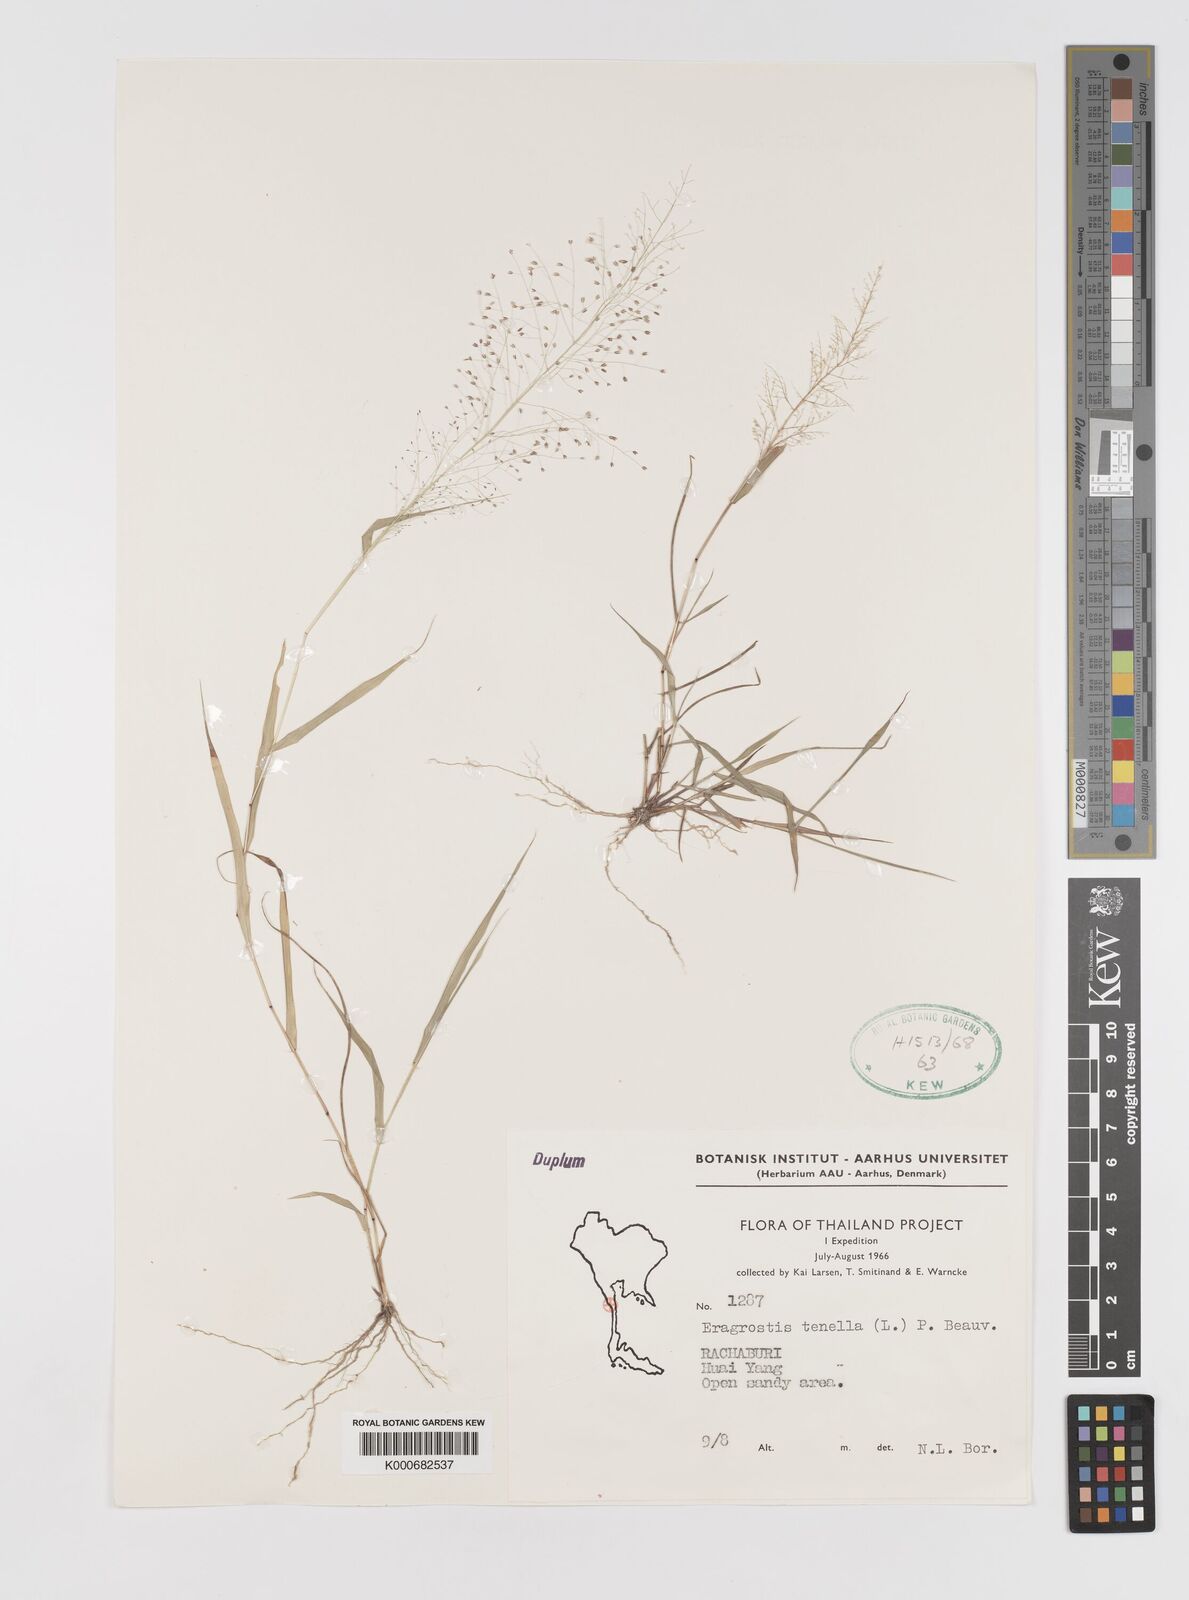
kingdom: Plantae
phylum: Tracheophyta
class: Liliopsida
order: Poales
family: Poaceae
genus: Eragrostis
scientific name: Eragrostis tenella
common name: Japanese lovegrass
